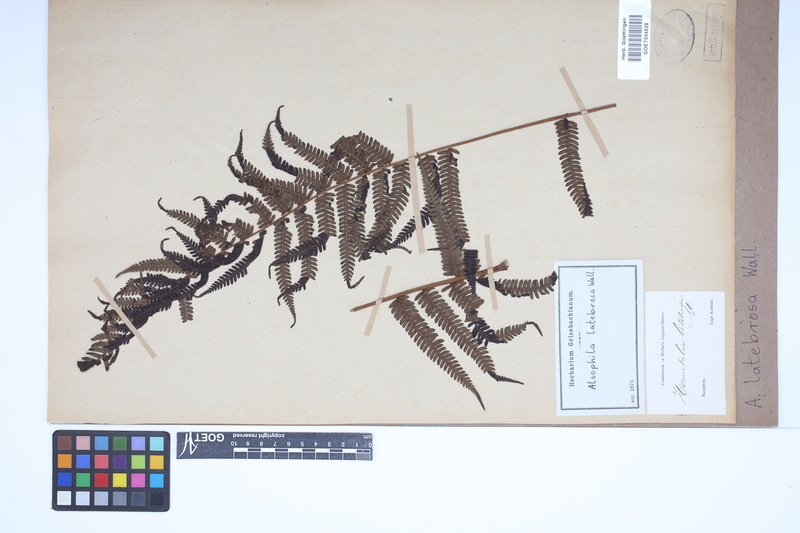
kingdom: Plantae
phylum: Tracheophyta
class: Polypodiopsida
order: Cyatheales
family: Cyatheaceae
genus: Alsophila
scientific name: Alsophila nilgirensis
